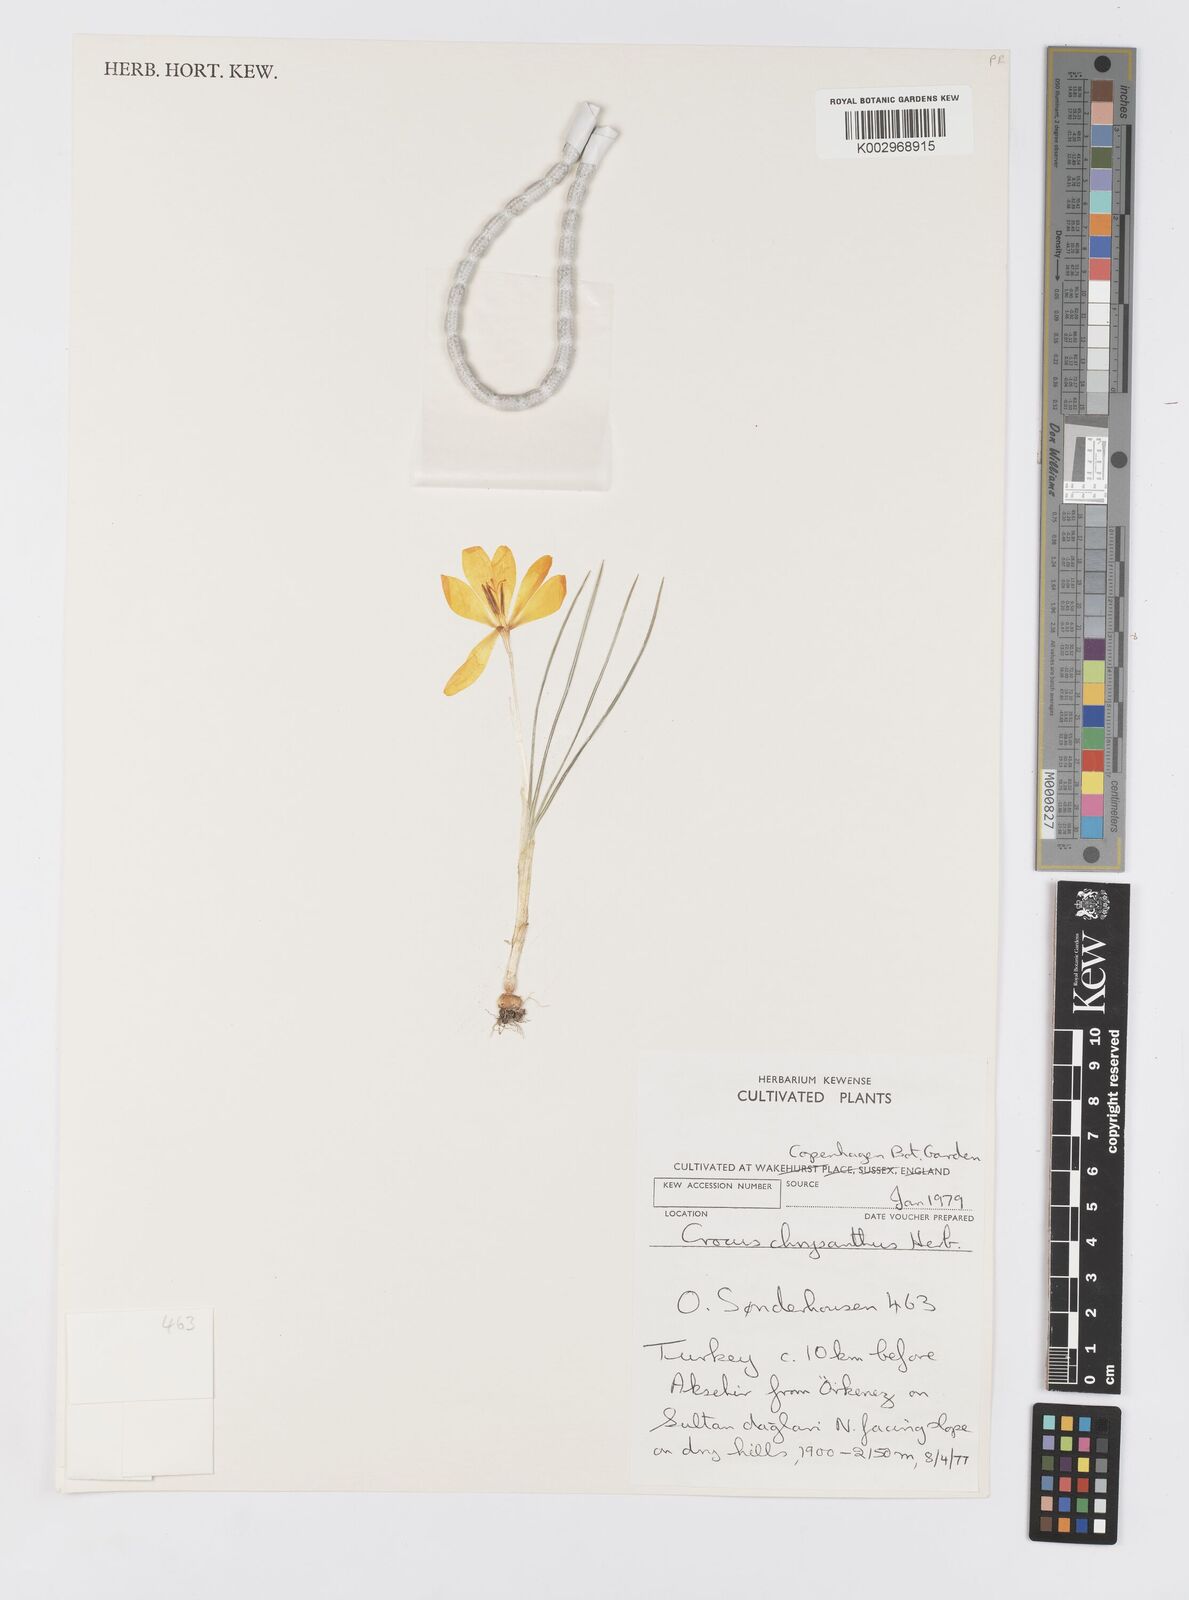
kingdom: Plantae
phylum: Tracheophyta
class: Liliopsida
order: Asparagales
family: Iridaceae
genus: Crocus
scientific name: Crocus chrysanthus
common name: Golden crocus
